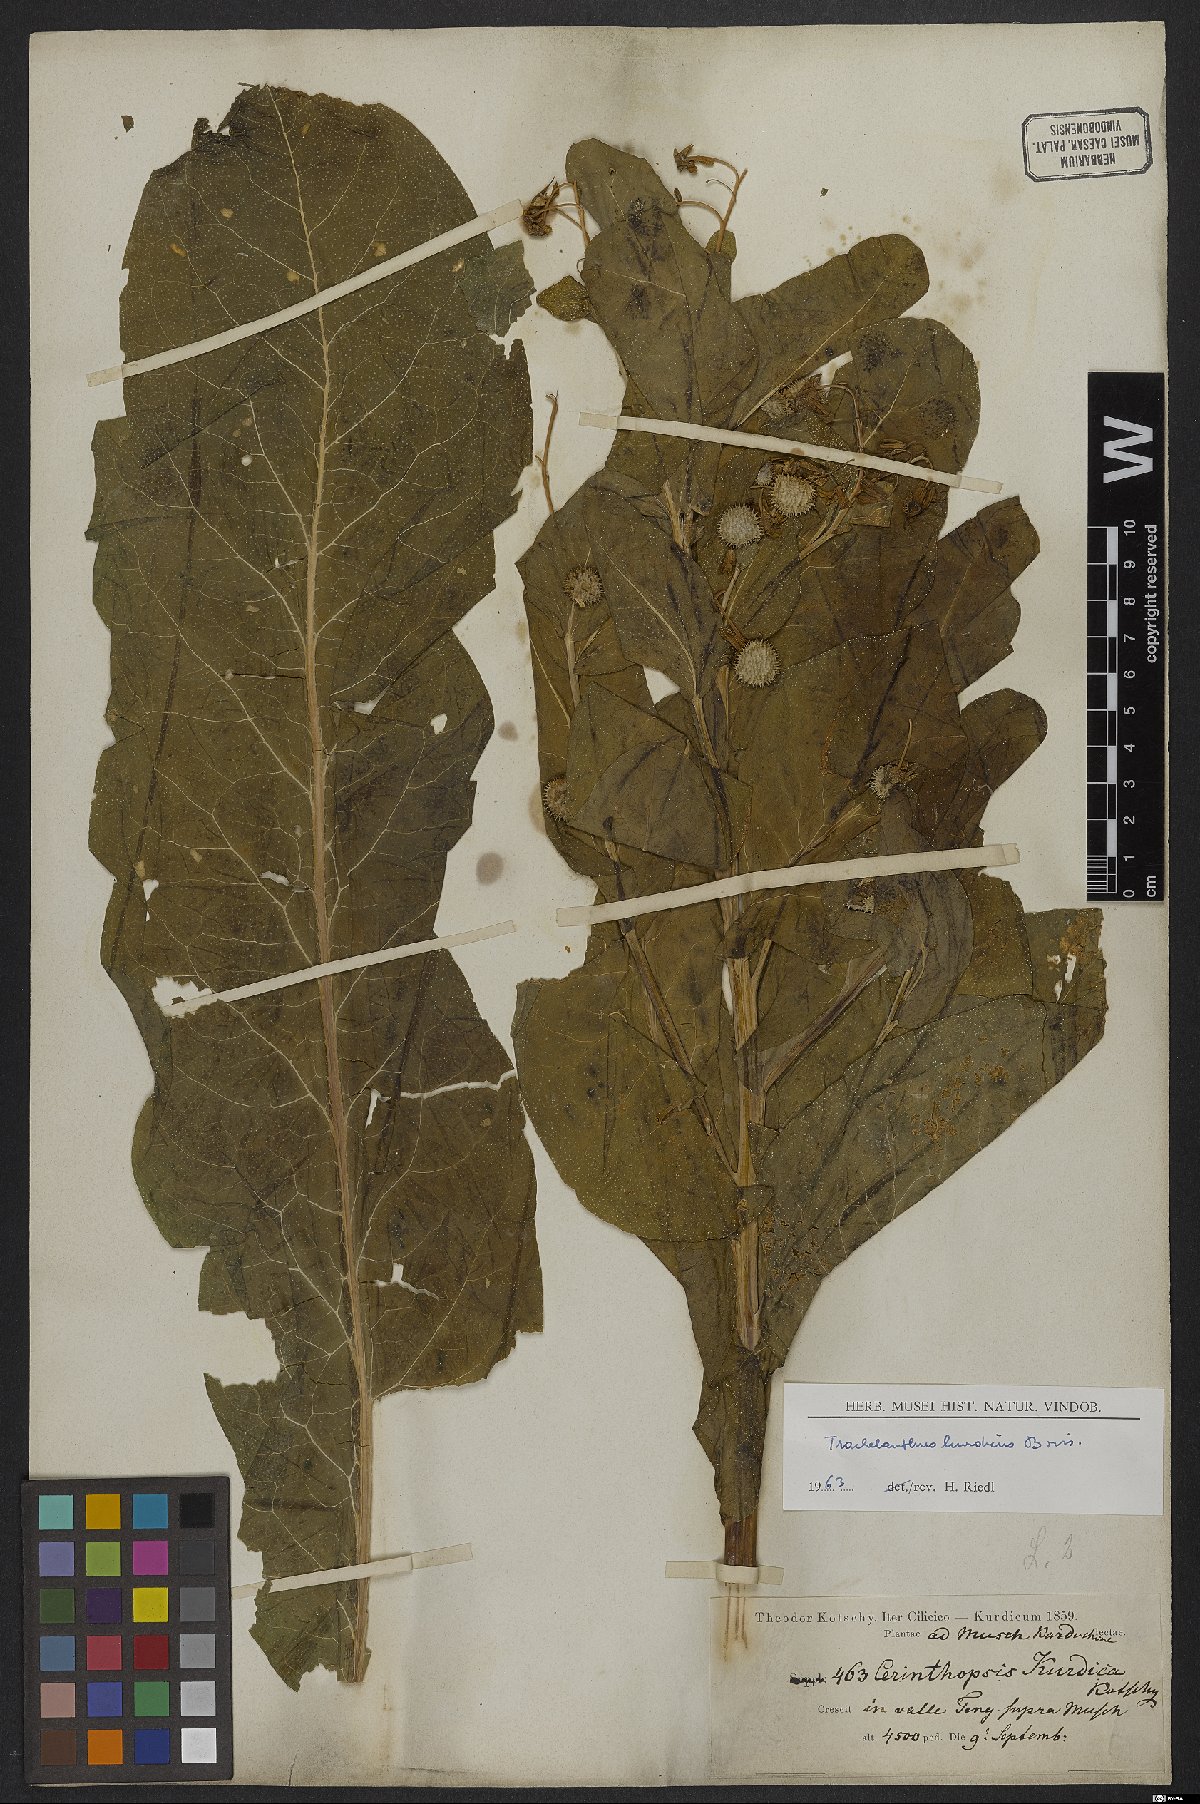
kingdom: Plantae
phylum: Tracheophyta
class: Magnoliopsida
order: Boraginales
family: Boraginaceae
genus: Lindelofia
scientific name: Lindelofia cerinthoides
